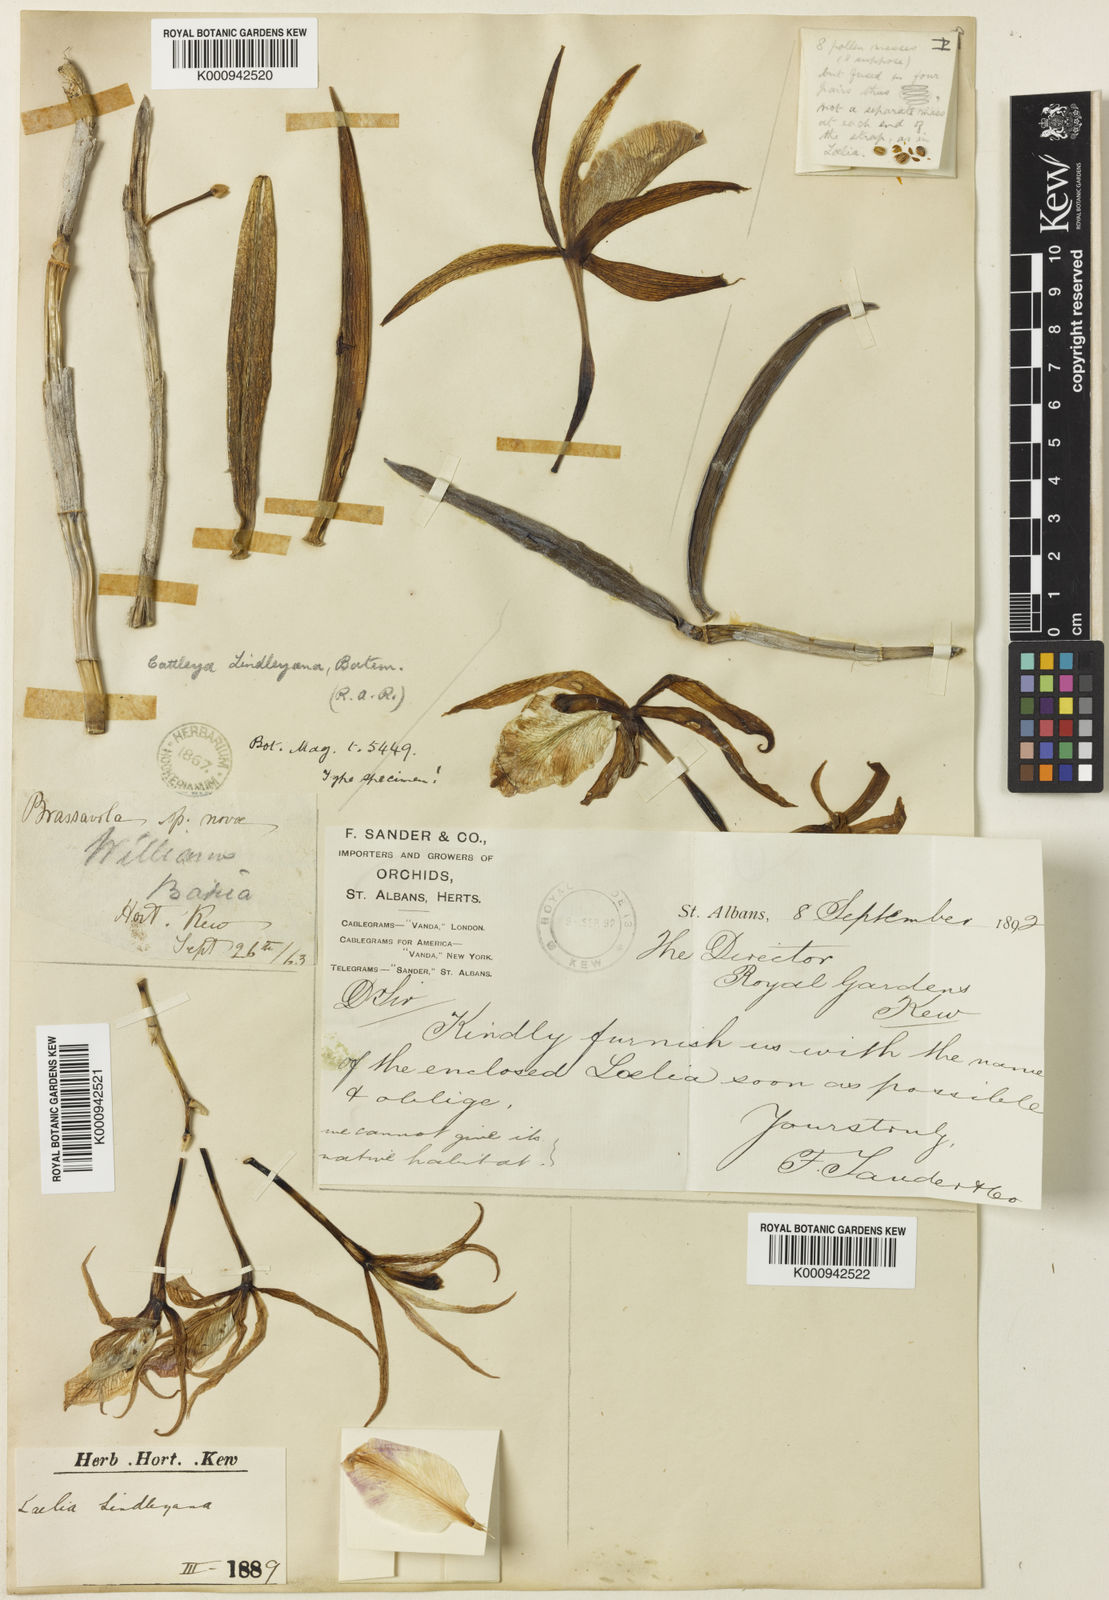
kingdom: Plantae
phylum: Tracheophyta
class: Liliopsida
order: Asparagales
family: Orchidaceae
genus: Brassocattleya
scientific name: Brassocattleya lindleyana
